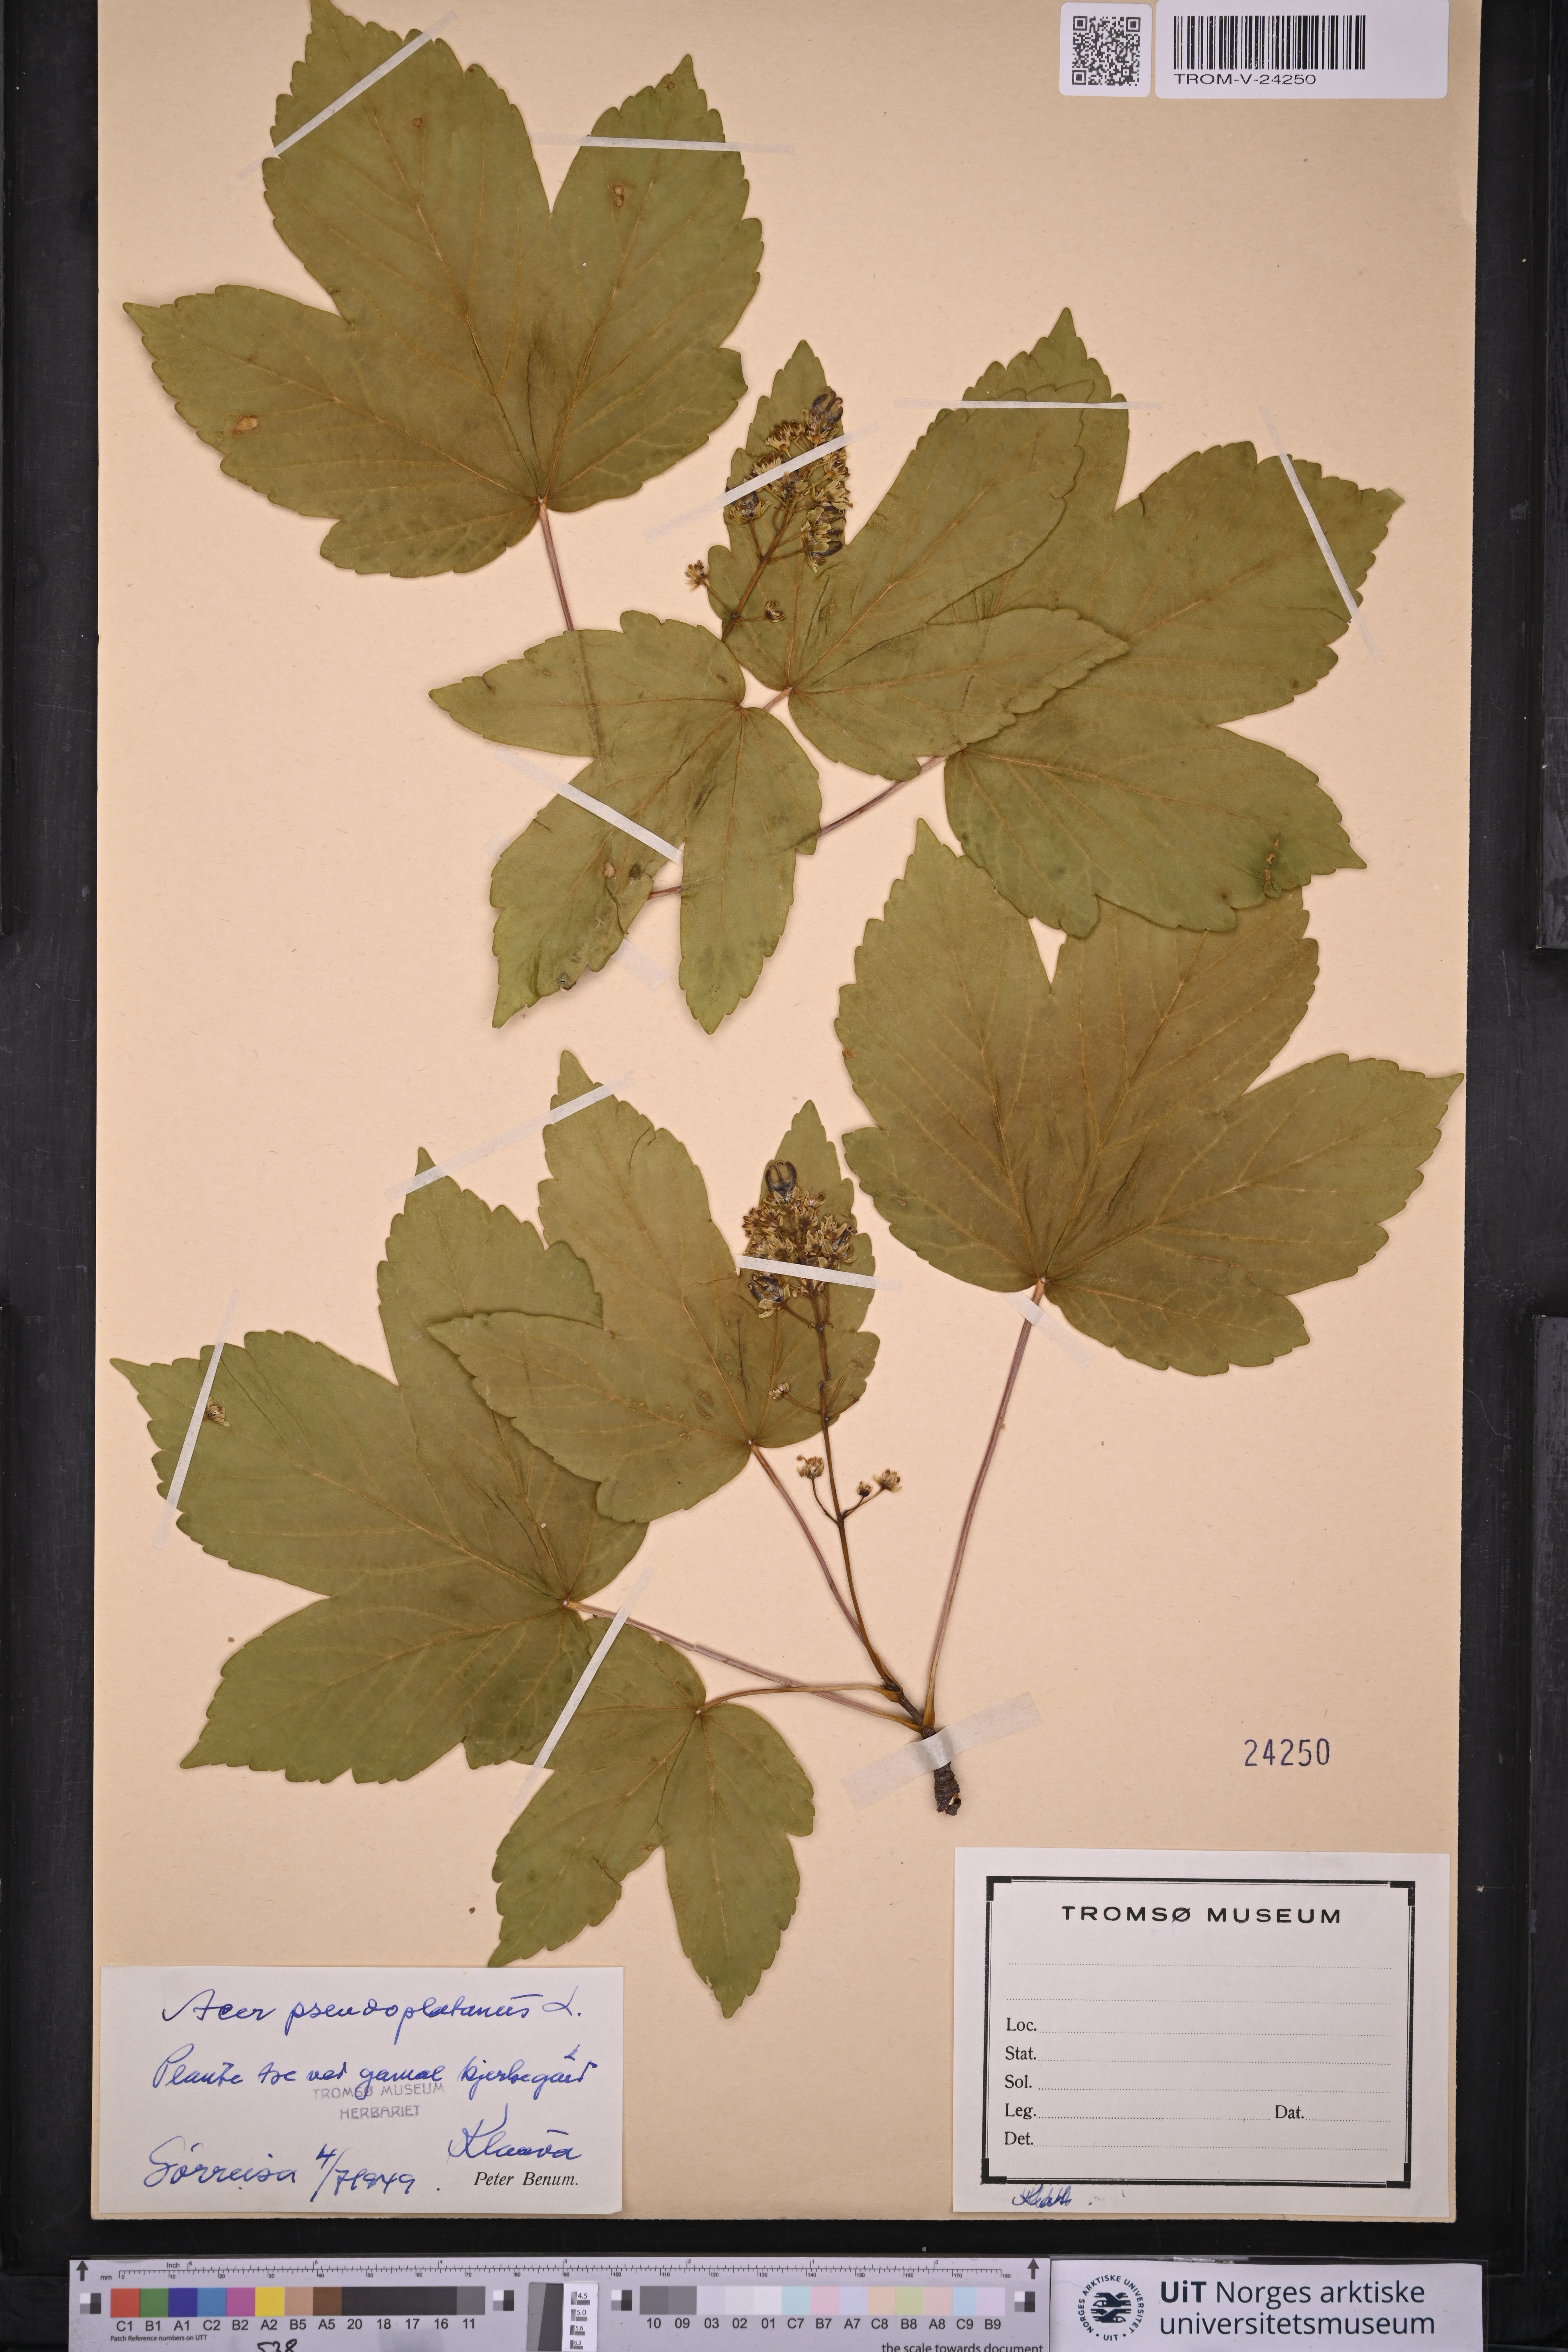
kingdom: Plantae
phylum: Tracheophyta
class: Magnoliopsida
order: Sapindales
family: Sapindaceae
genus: Acer
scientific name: Acer pseudoplatanus
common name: Sycamore
